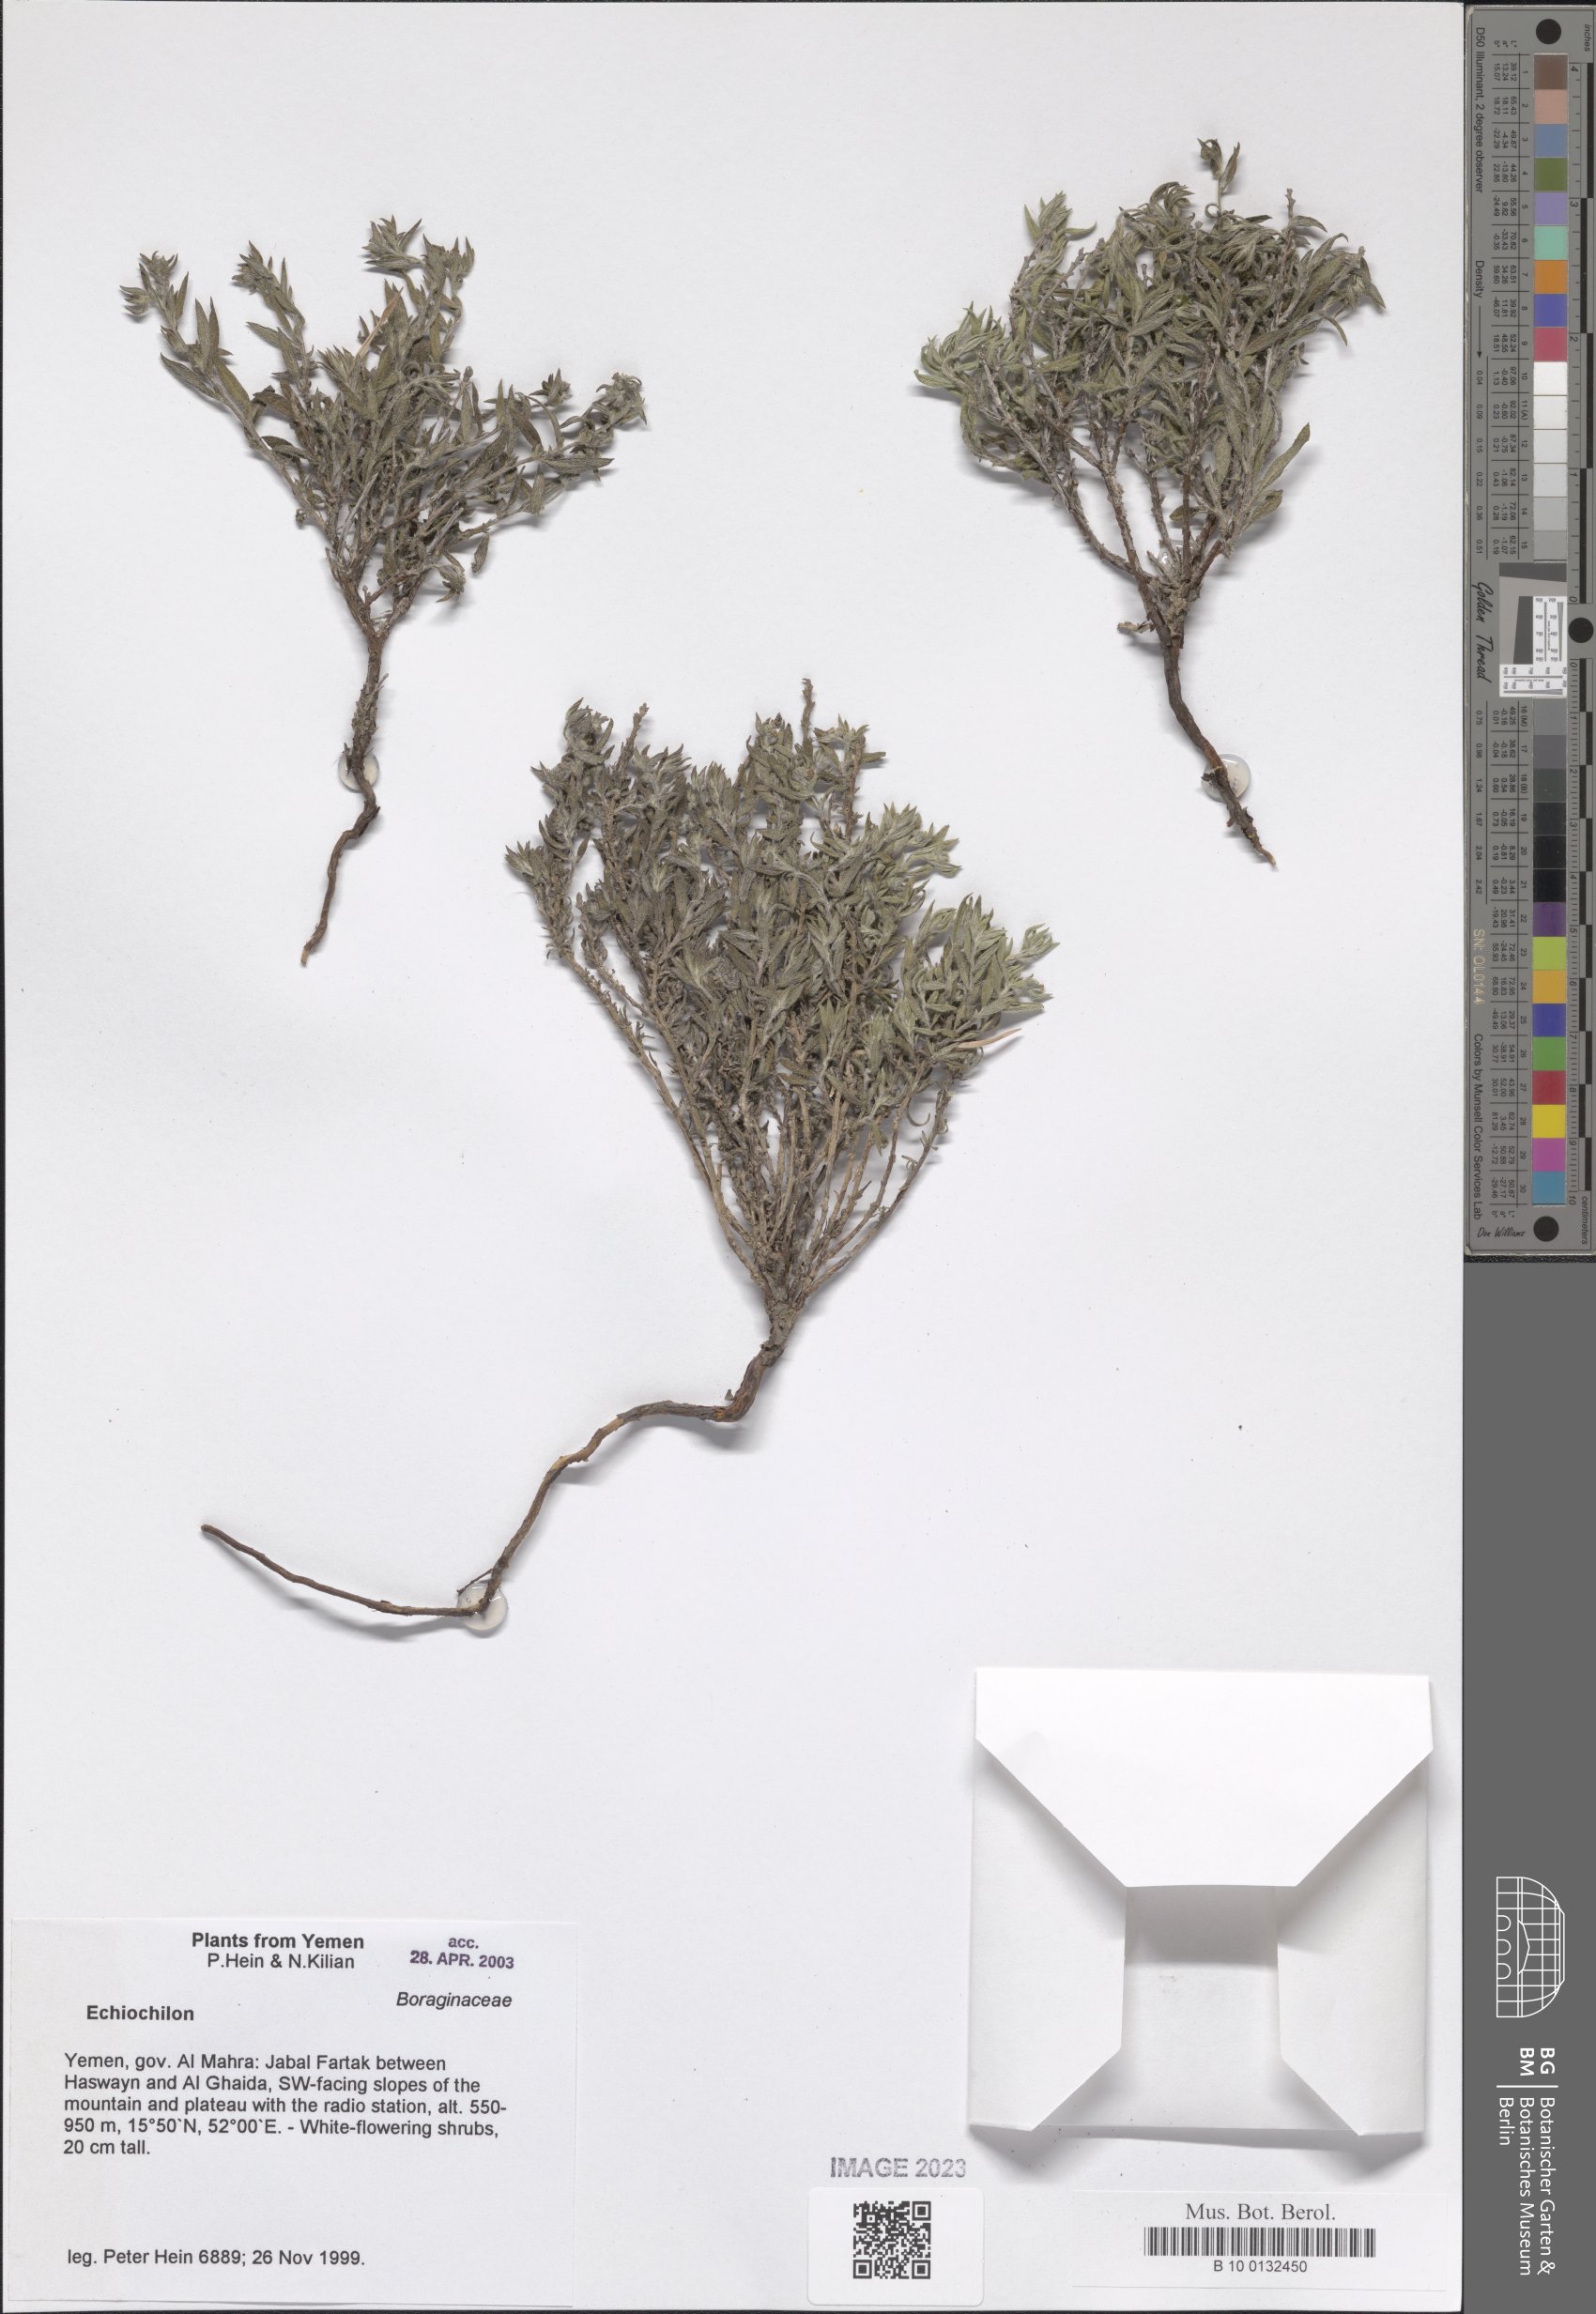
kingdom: Plantae
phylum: Tracheophyta
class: Magnoliopsida
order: Boraginales
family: Boraginaceae
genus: Echiochilon
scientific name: Echiochilon
